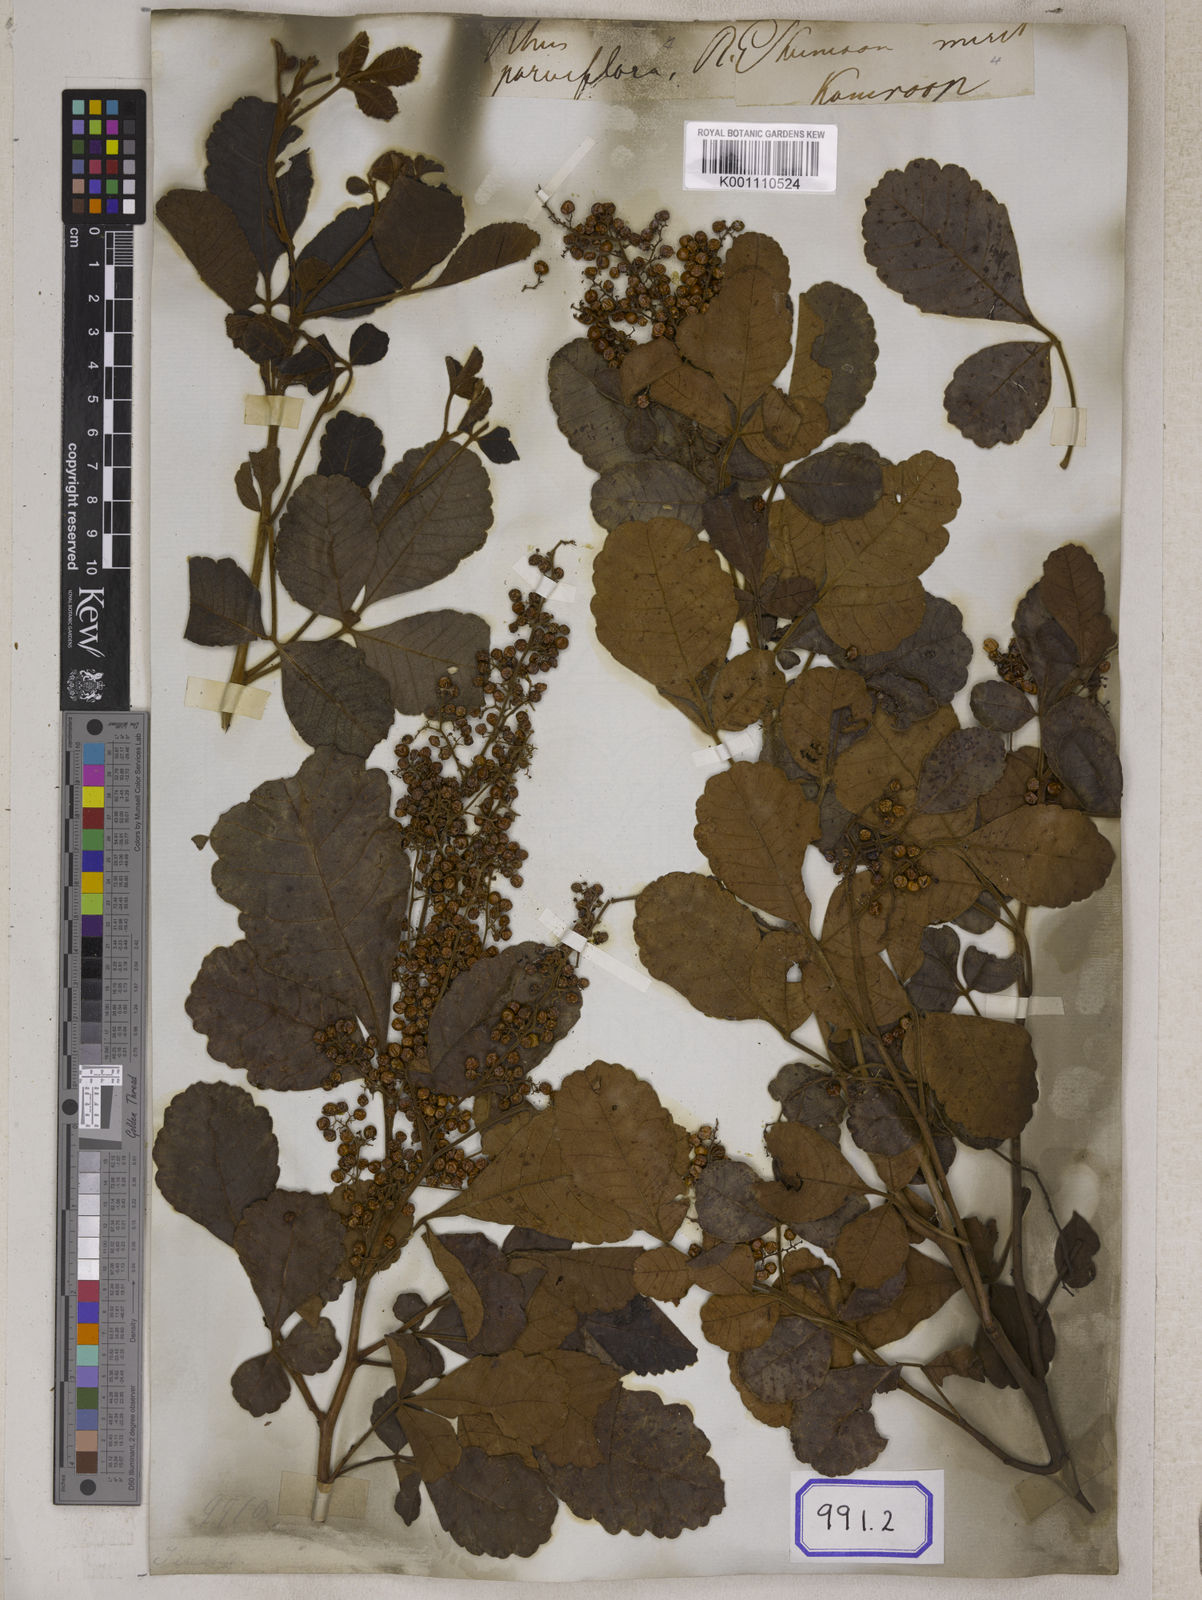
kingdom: Plantae
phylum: Tracheophyta
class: Magnoliopsida
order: Sapindales
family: Anacardiaceae
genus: Searsia
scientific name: Searsia parviflora
